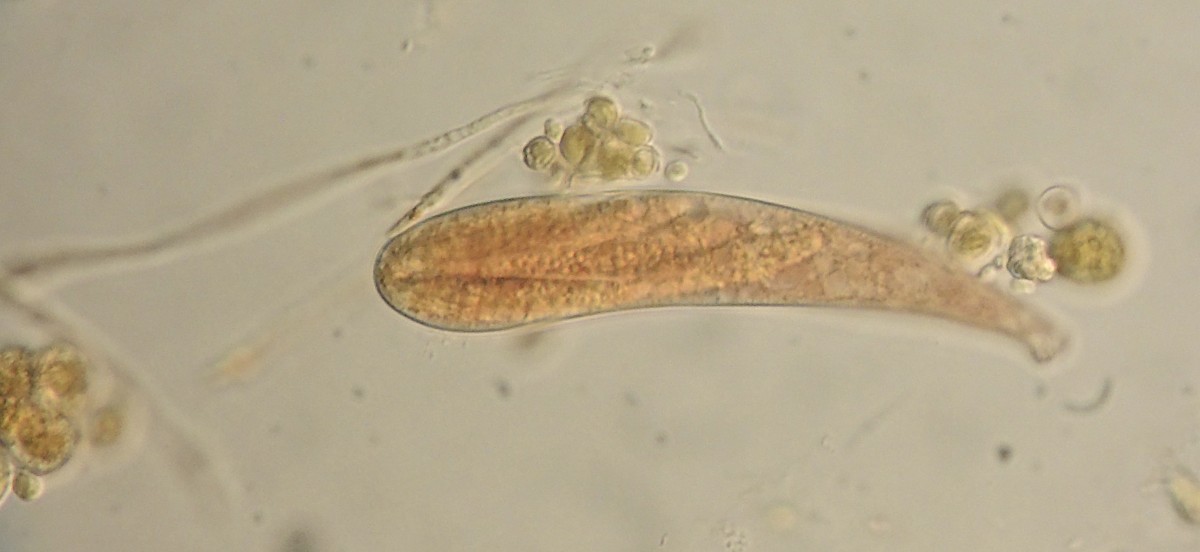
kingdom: Fungi
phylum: Ascomycota
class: Leotiomycetes
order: Helotiales
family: Helotiaceae
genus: Durella
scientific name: Durella connivens
